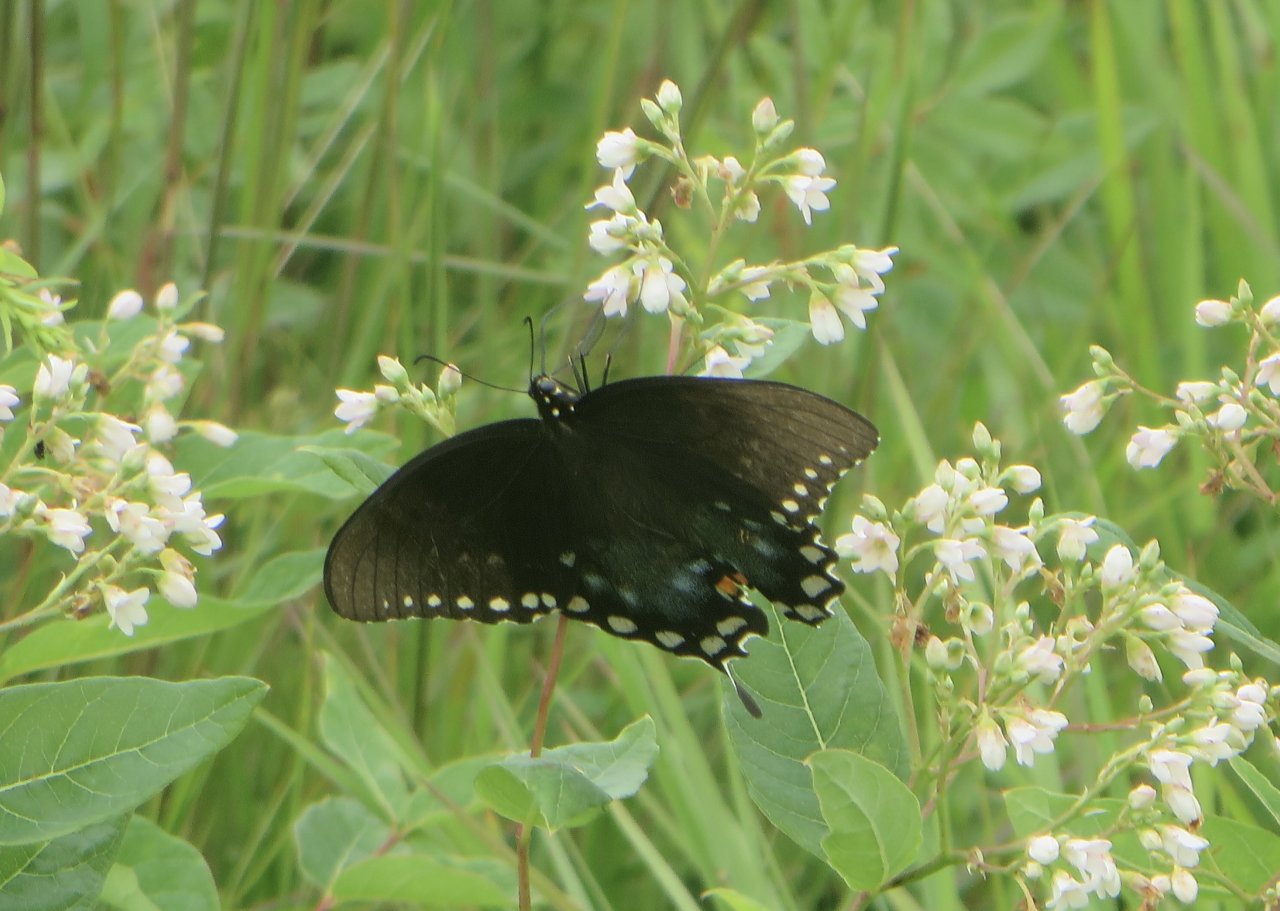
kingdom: Animalia
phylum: Arthropoda
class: Insecta
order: Lepidoptera
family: Papilionidae
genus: Pterourus
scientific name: Pterourus troilus
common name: Spicebush Swallowtail
